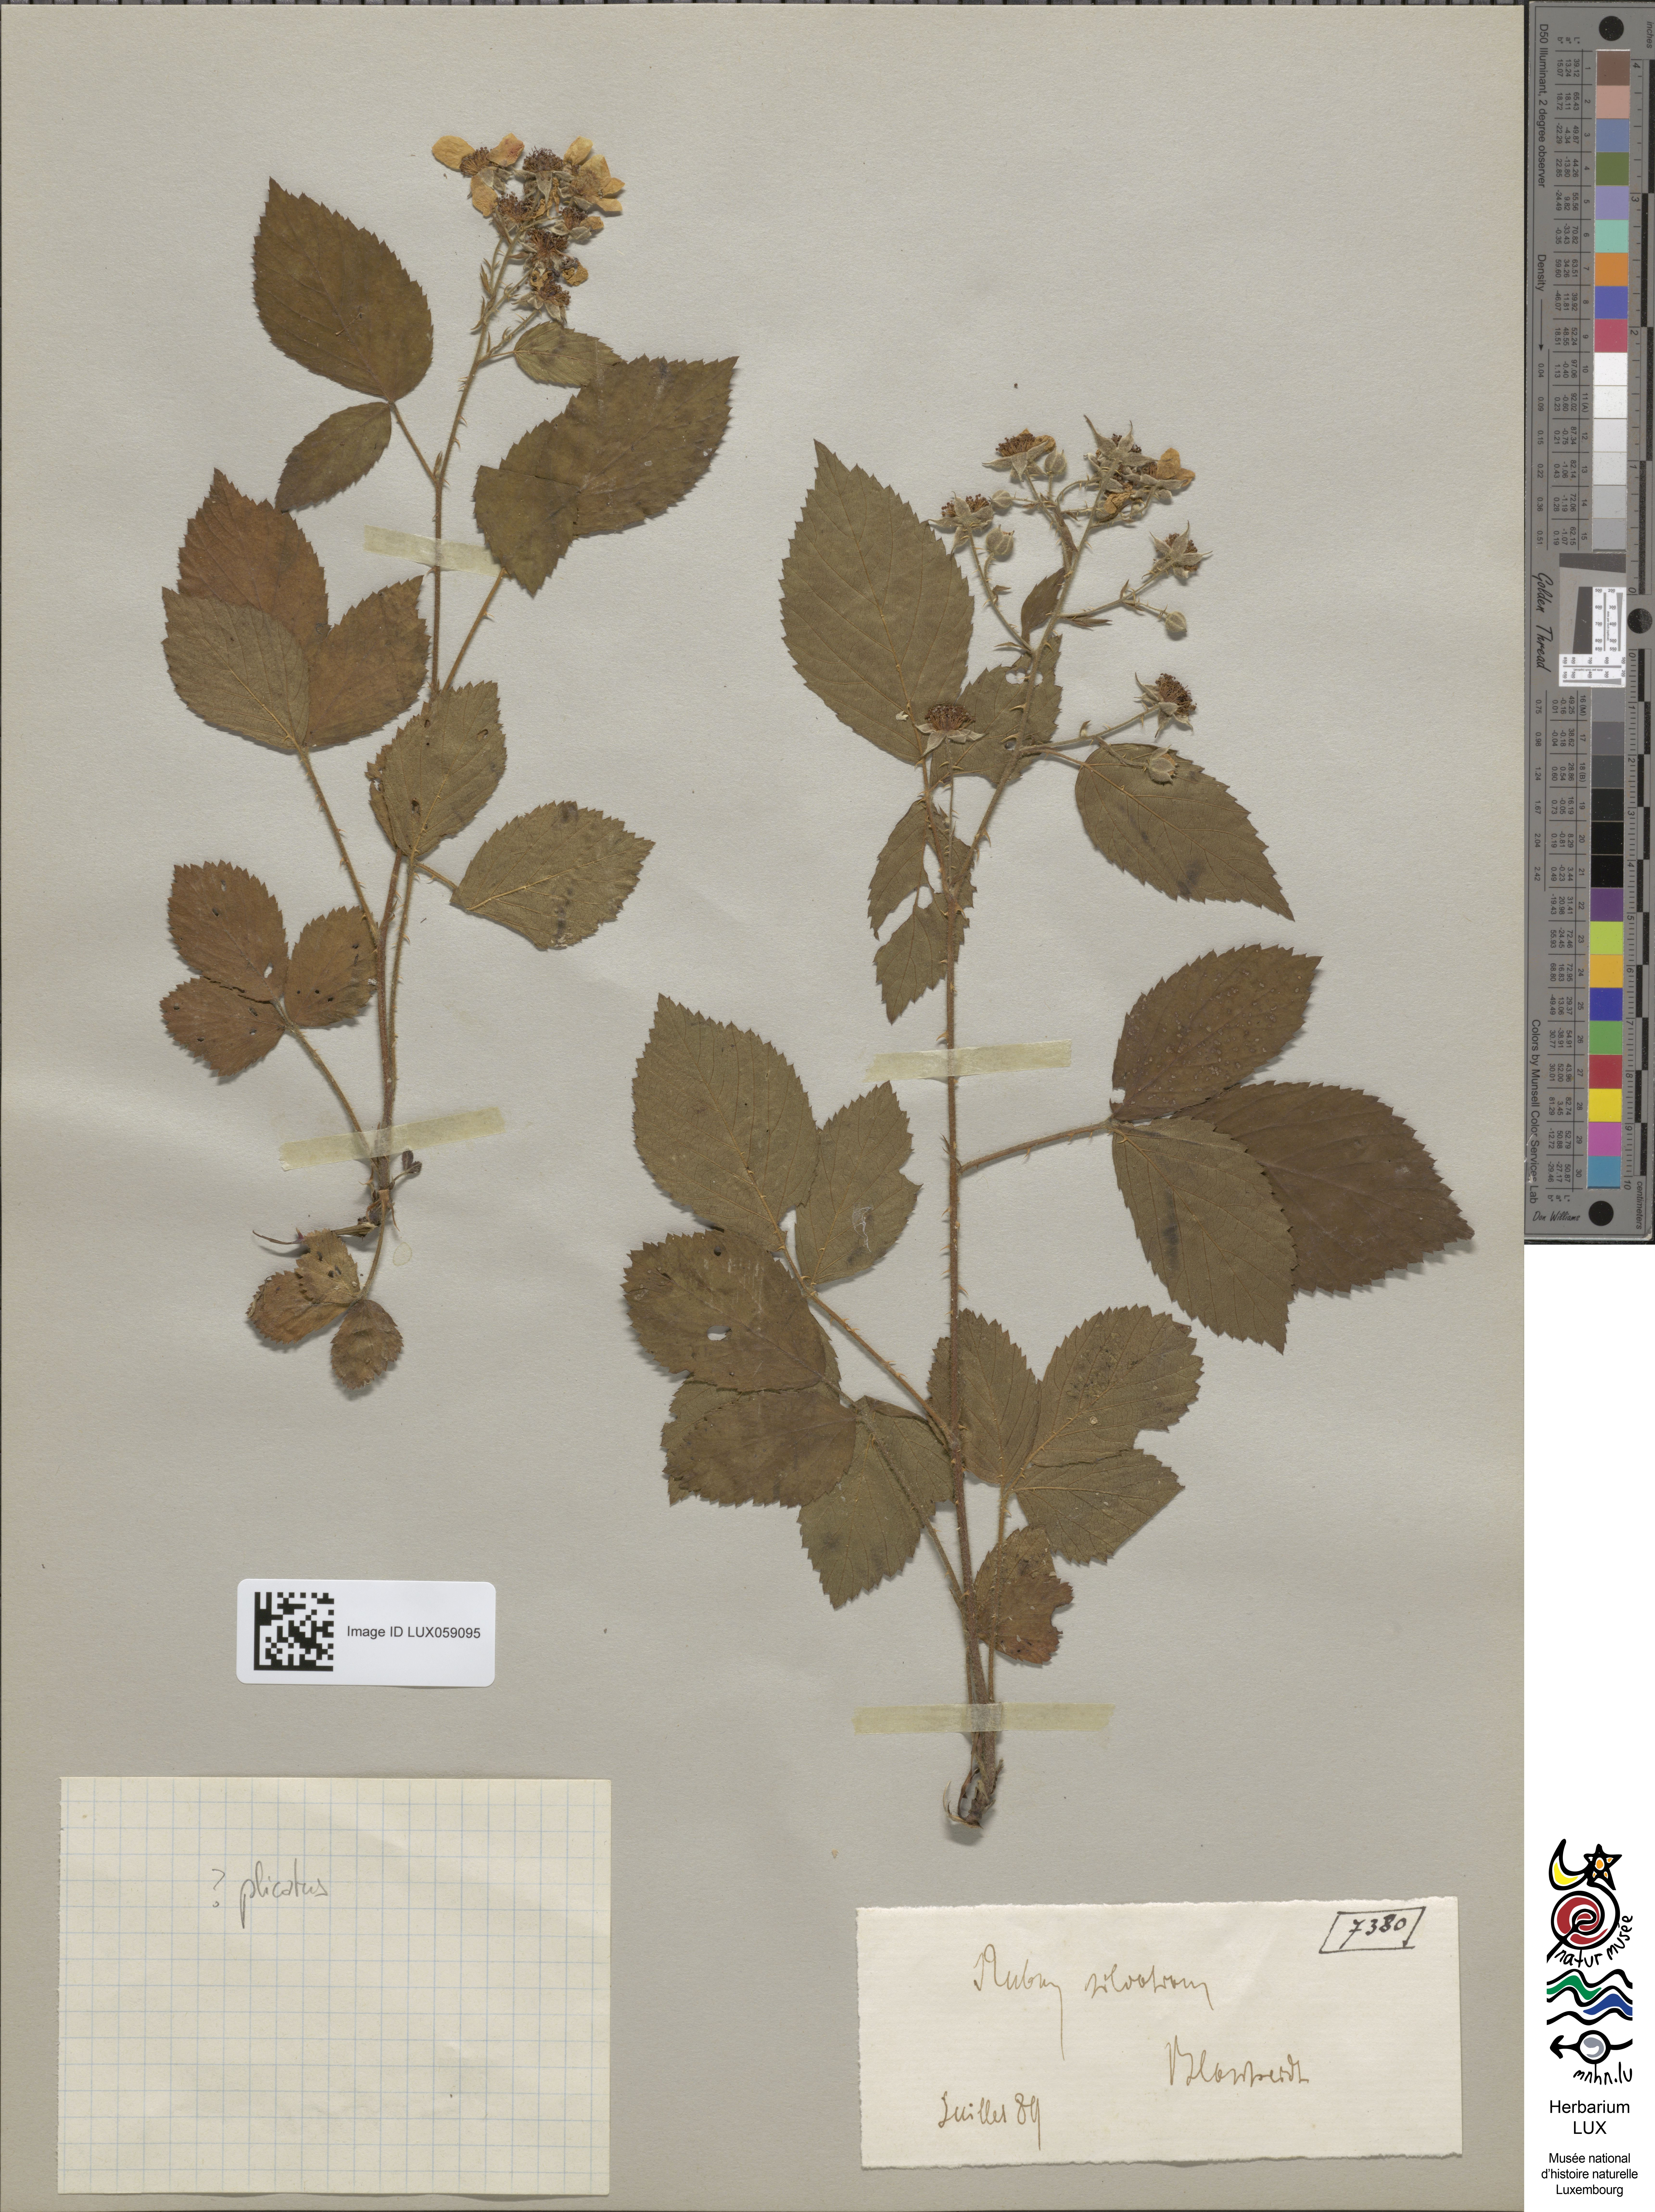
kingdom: Plantae
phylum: Tracheophyta
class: Magnoliopsida
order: Rosales
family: Rosaceae
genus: Rubus
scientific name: Rubus silvaticus
